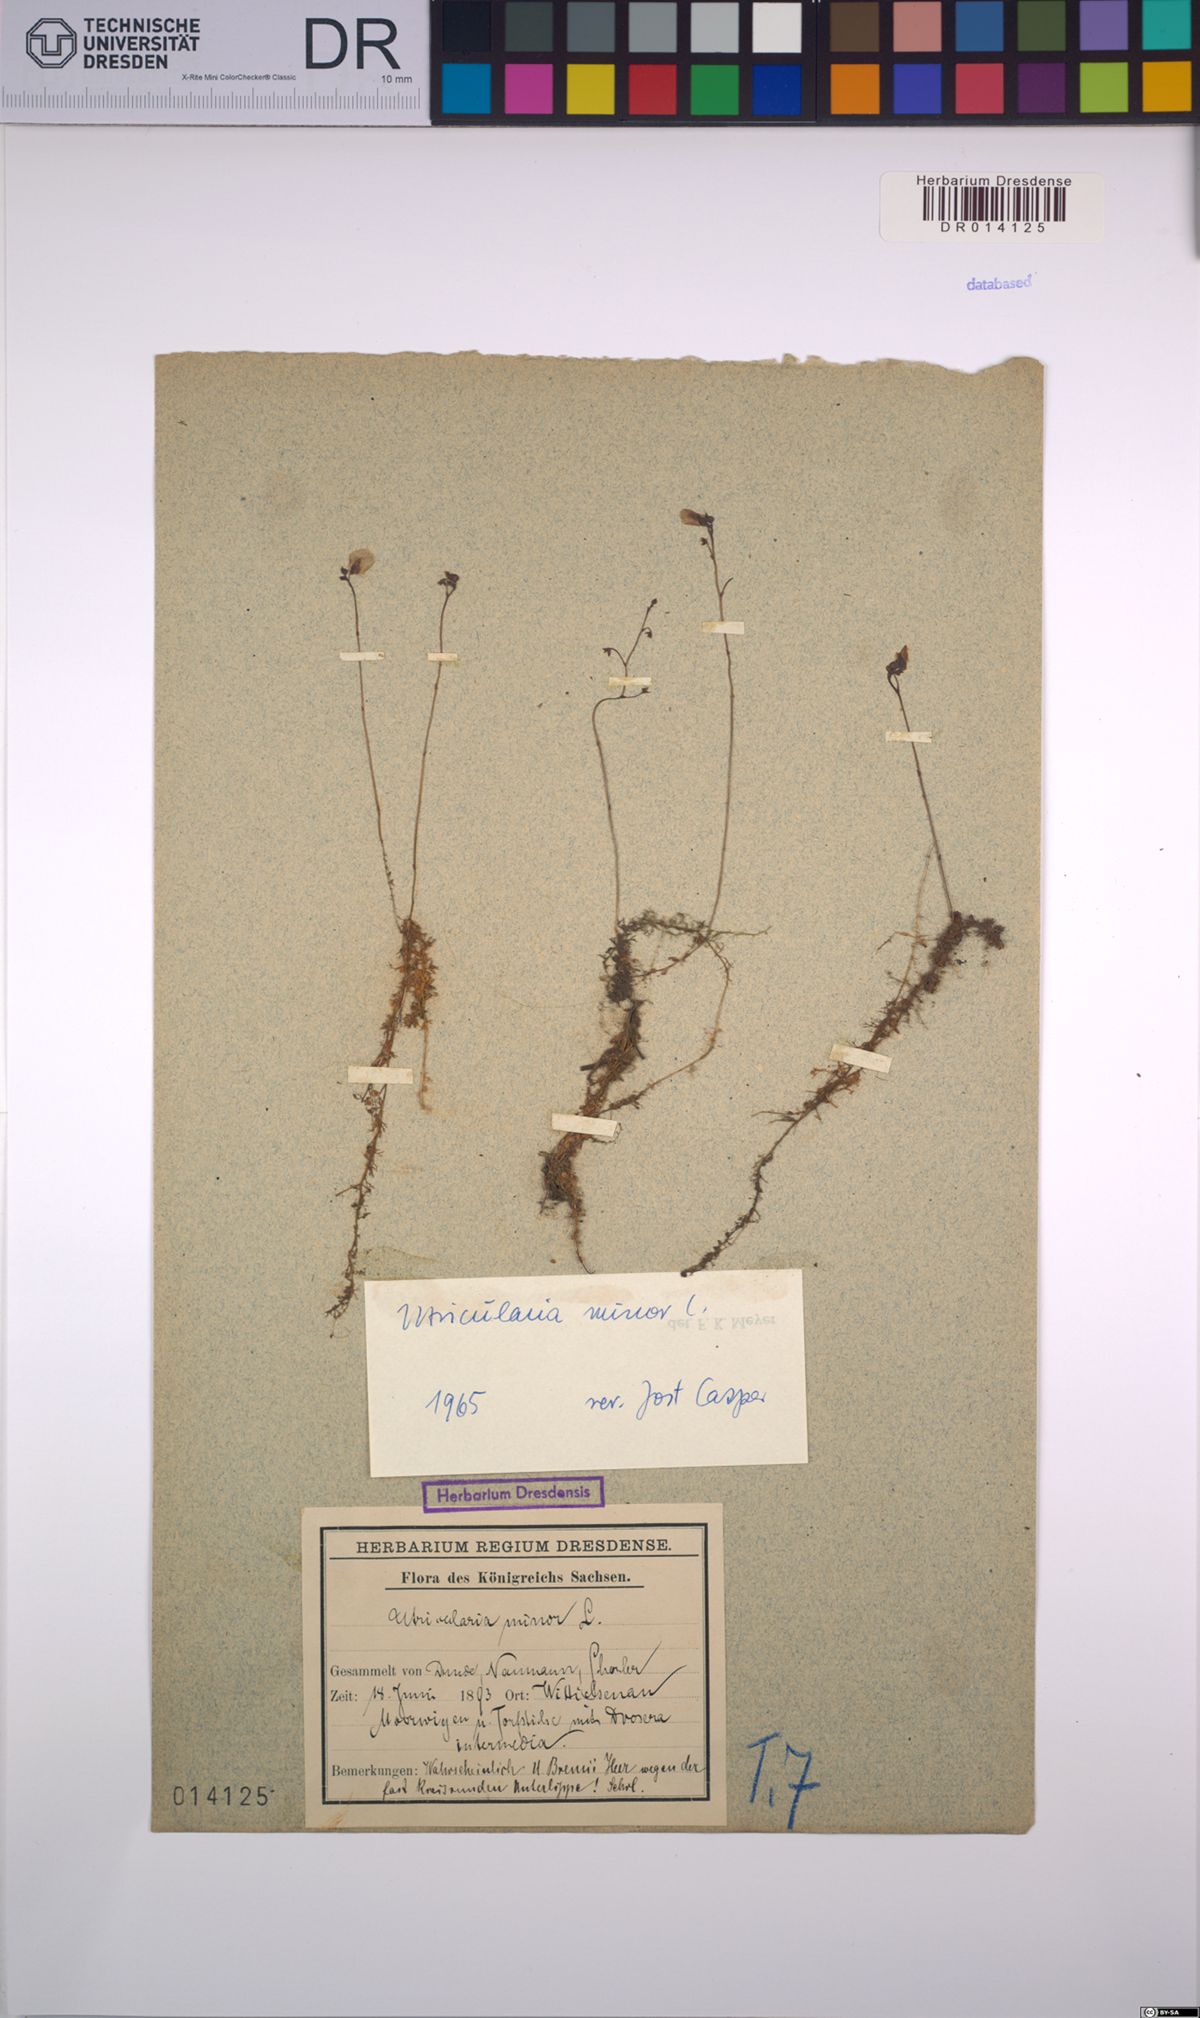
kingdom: Plantae
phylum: Tracheophyta
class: Magnoliopsida
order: Lamiales
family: Lentibulariaceae
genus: Utricularia
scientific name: Utricularia minor
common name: Lesser bladderwort
